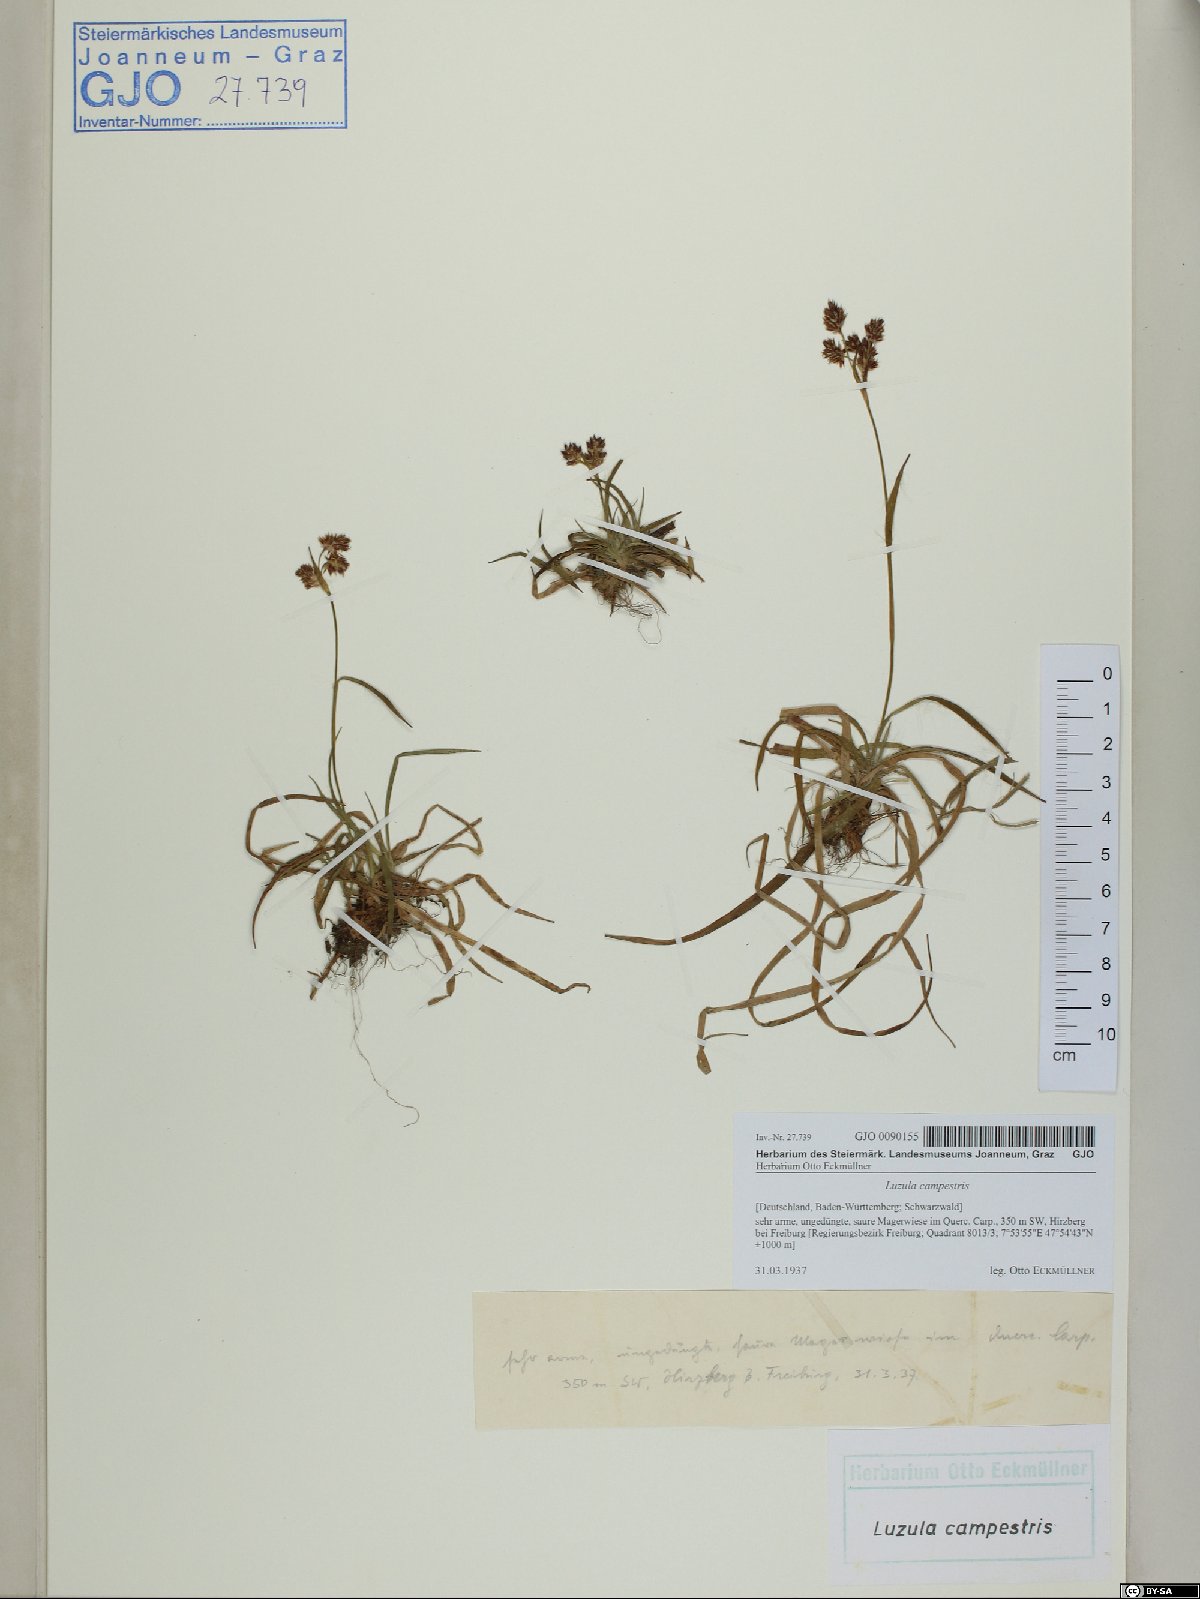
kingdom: Plantae
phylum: Tracheophyta
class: Liliopsida
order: Poales
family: Juncaceae
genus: Luzula
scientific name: Luzula campestris
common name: Field wood-rush
